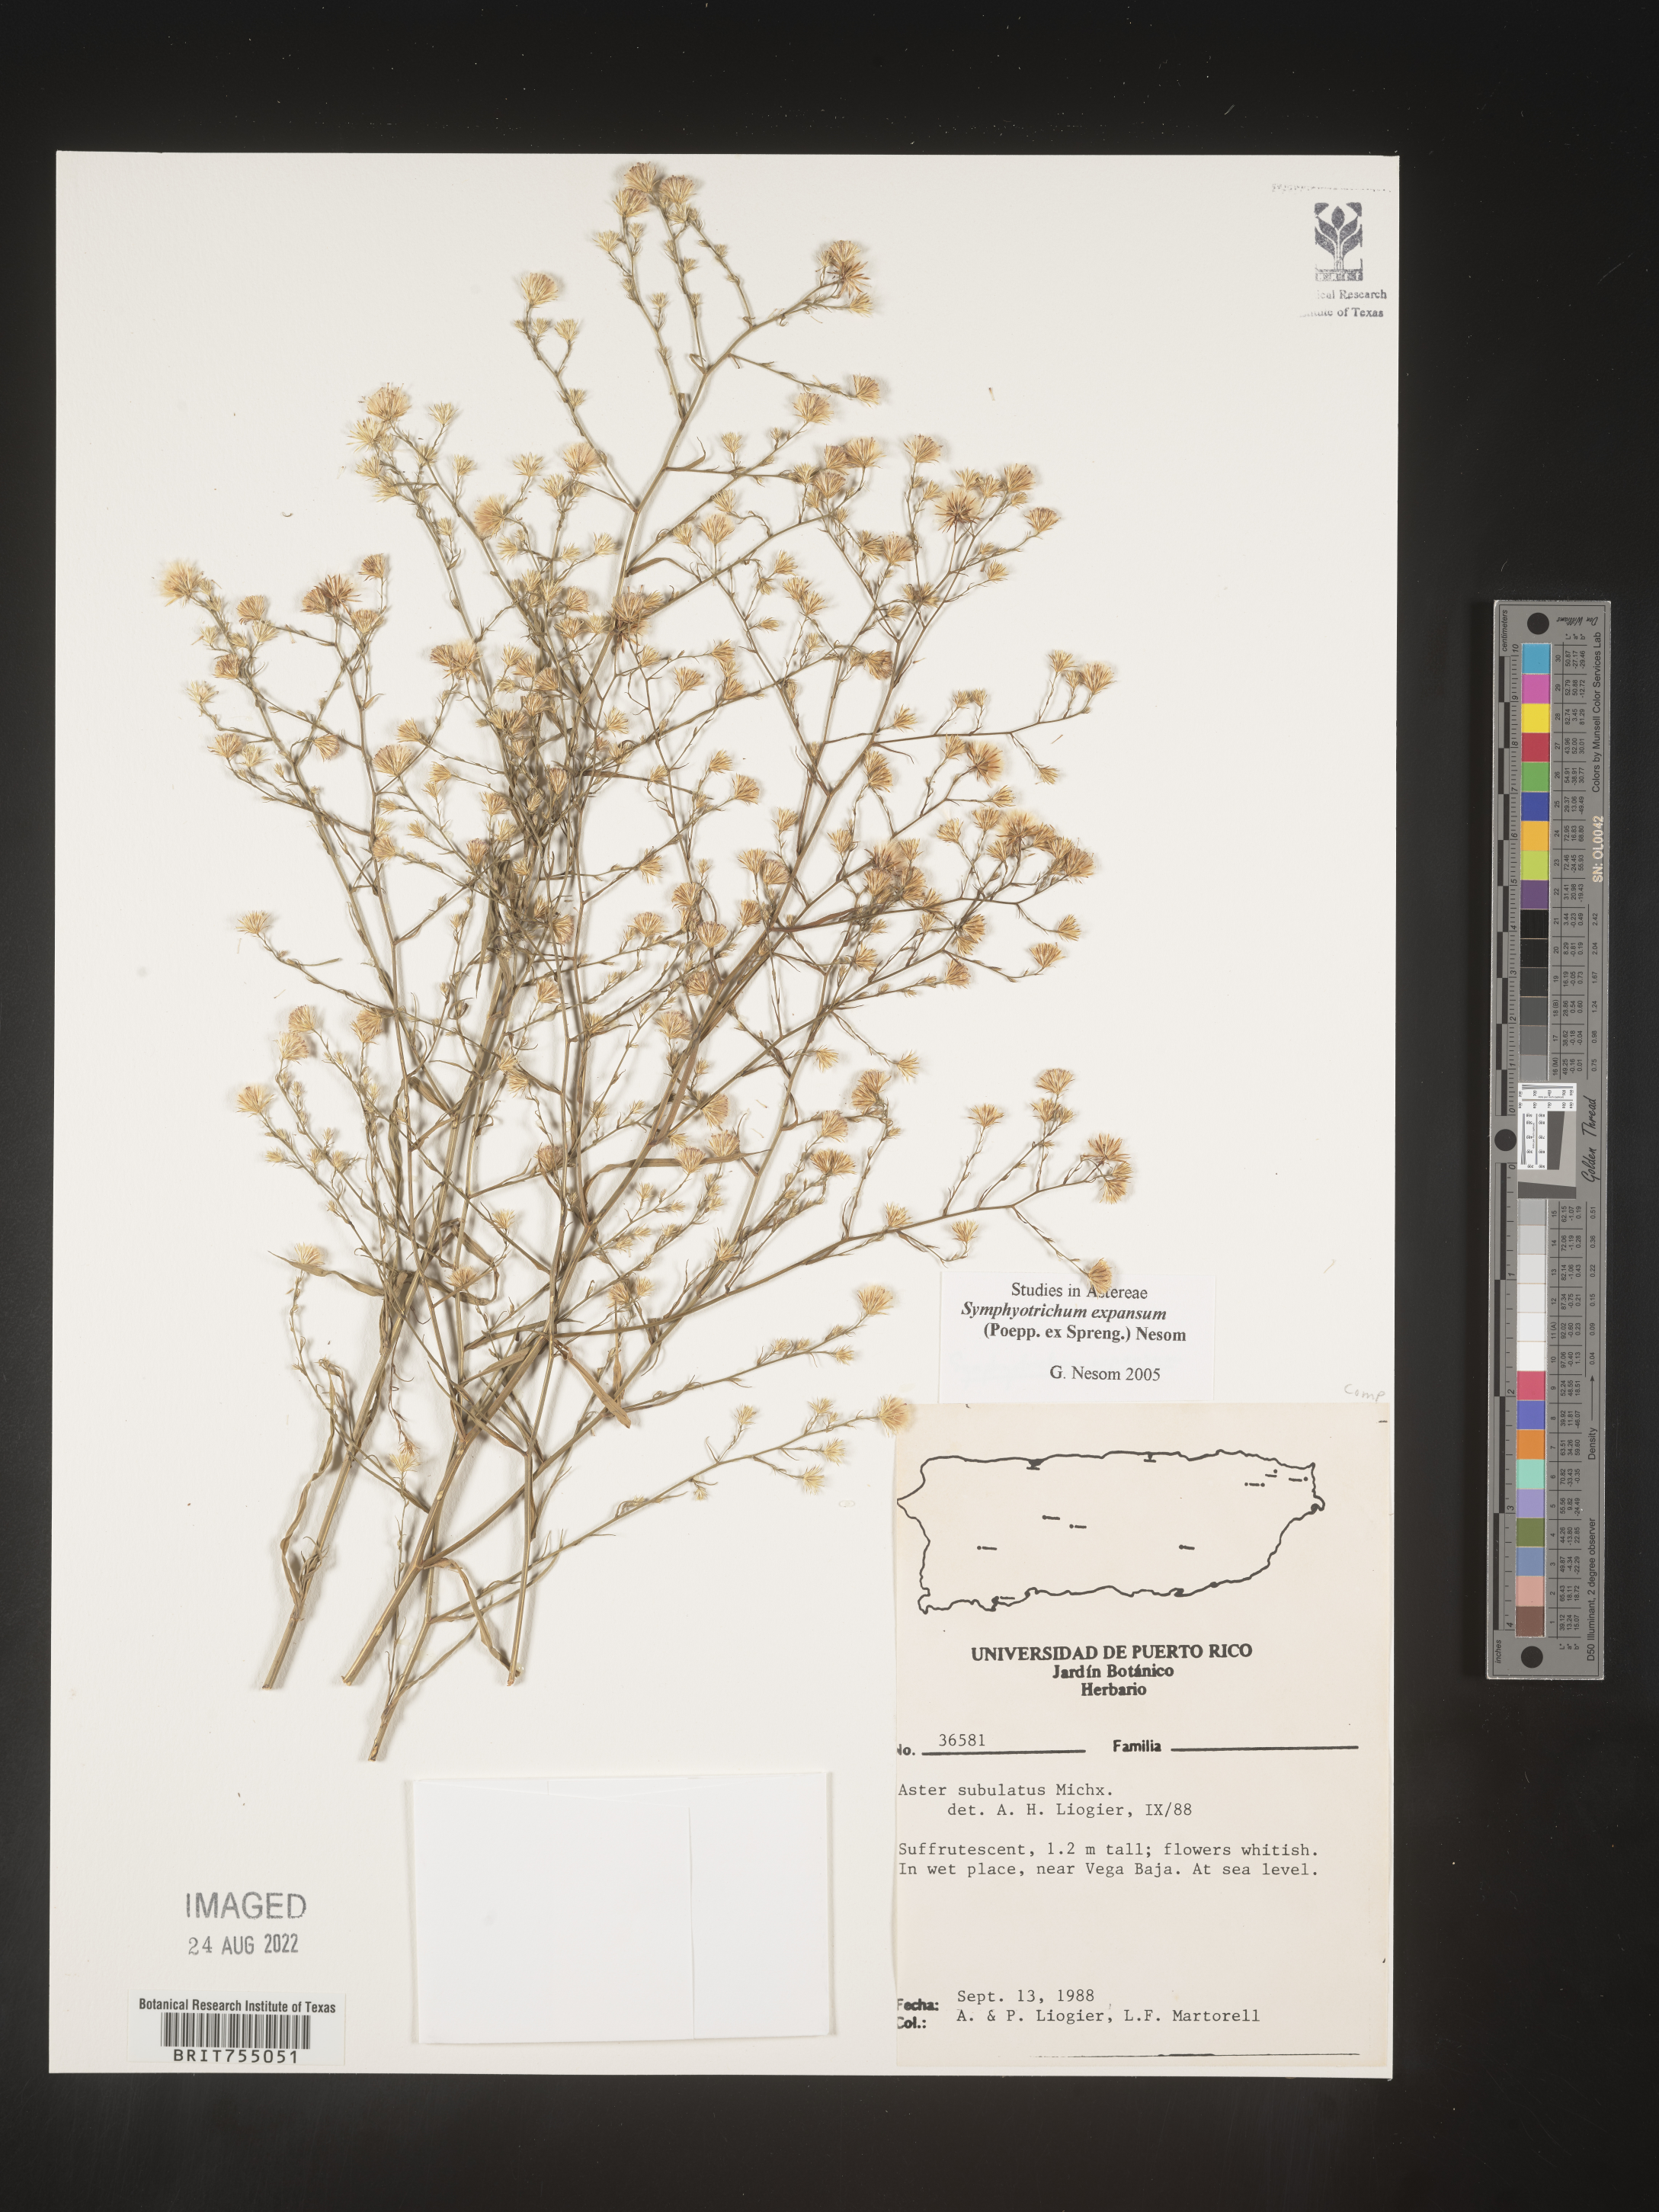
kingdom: Plantae
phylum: Tracheophyta
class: Magnoliopsida
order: Asterales
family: Asteraceae
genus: Symphyotrichum
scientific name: Symphyotrichum expansum
